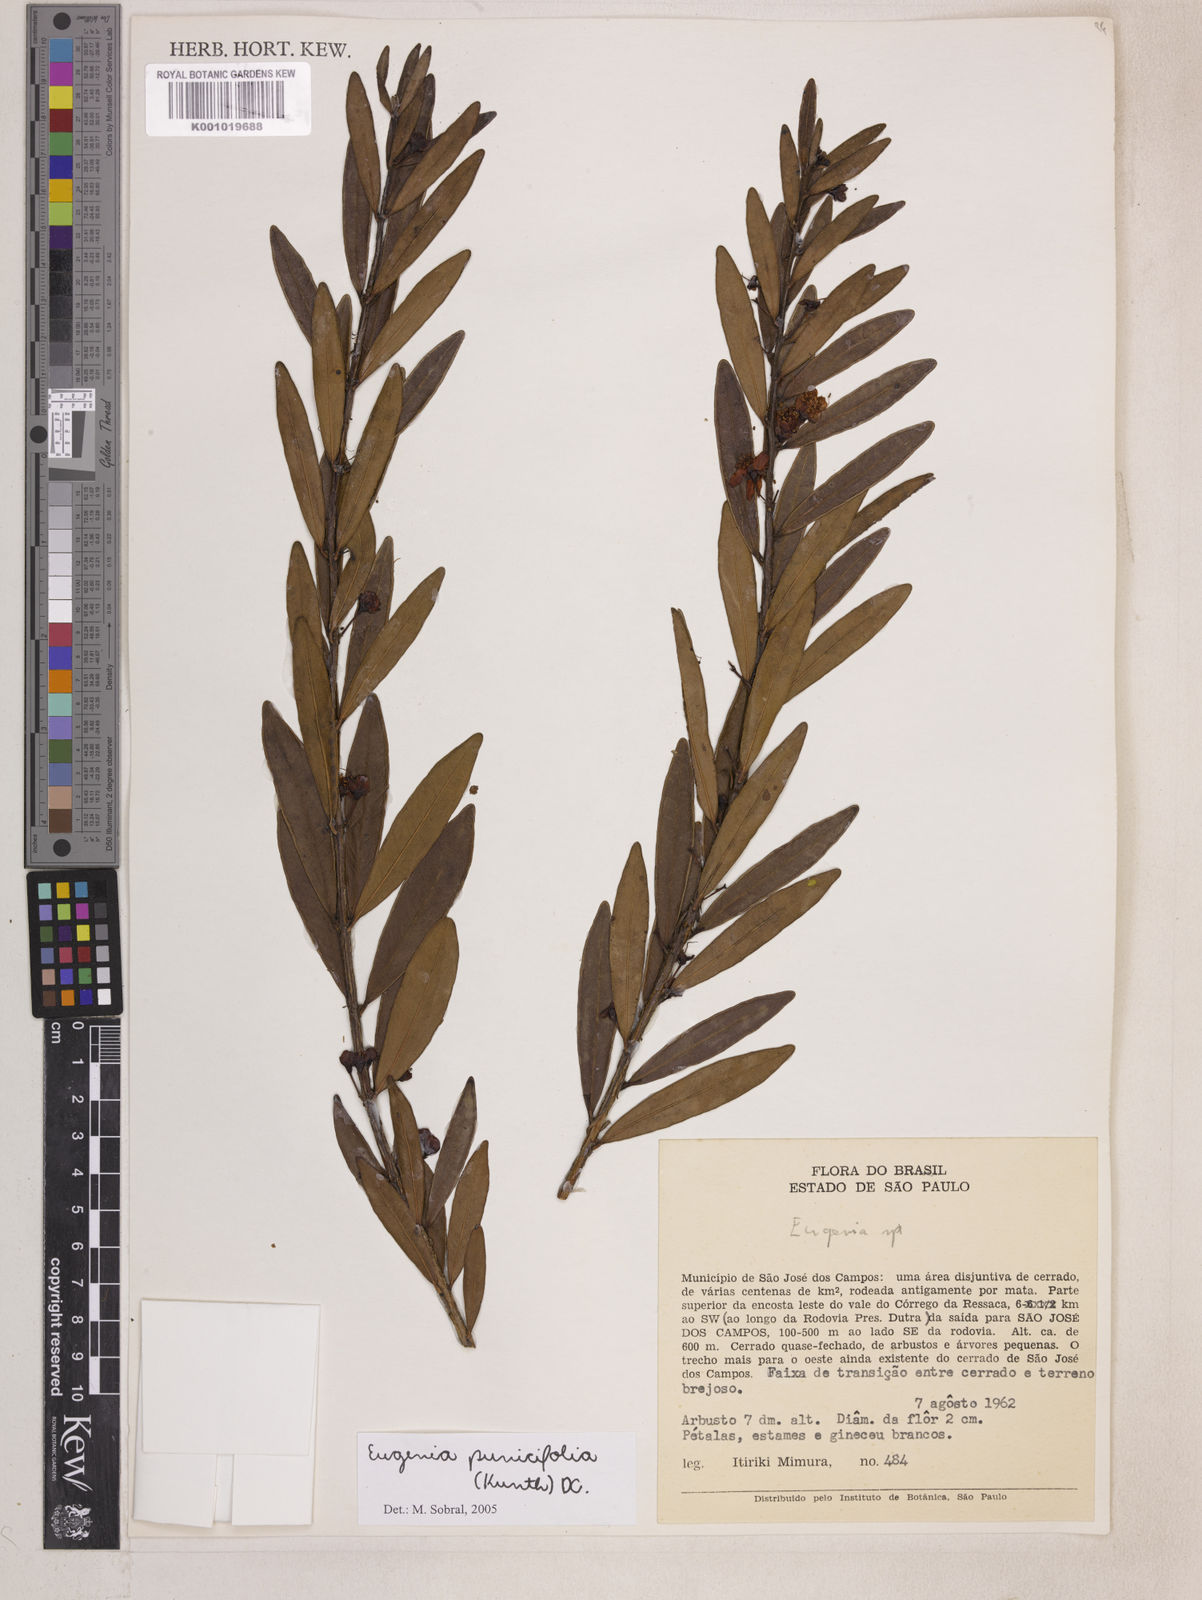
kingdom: Plantae
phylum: Tracheophyta
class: Magnoliopsida
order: Myrtales
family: Myrtaceae
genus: Eugenia
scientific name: Eugenia punicifolia
